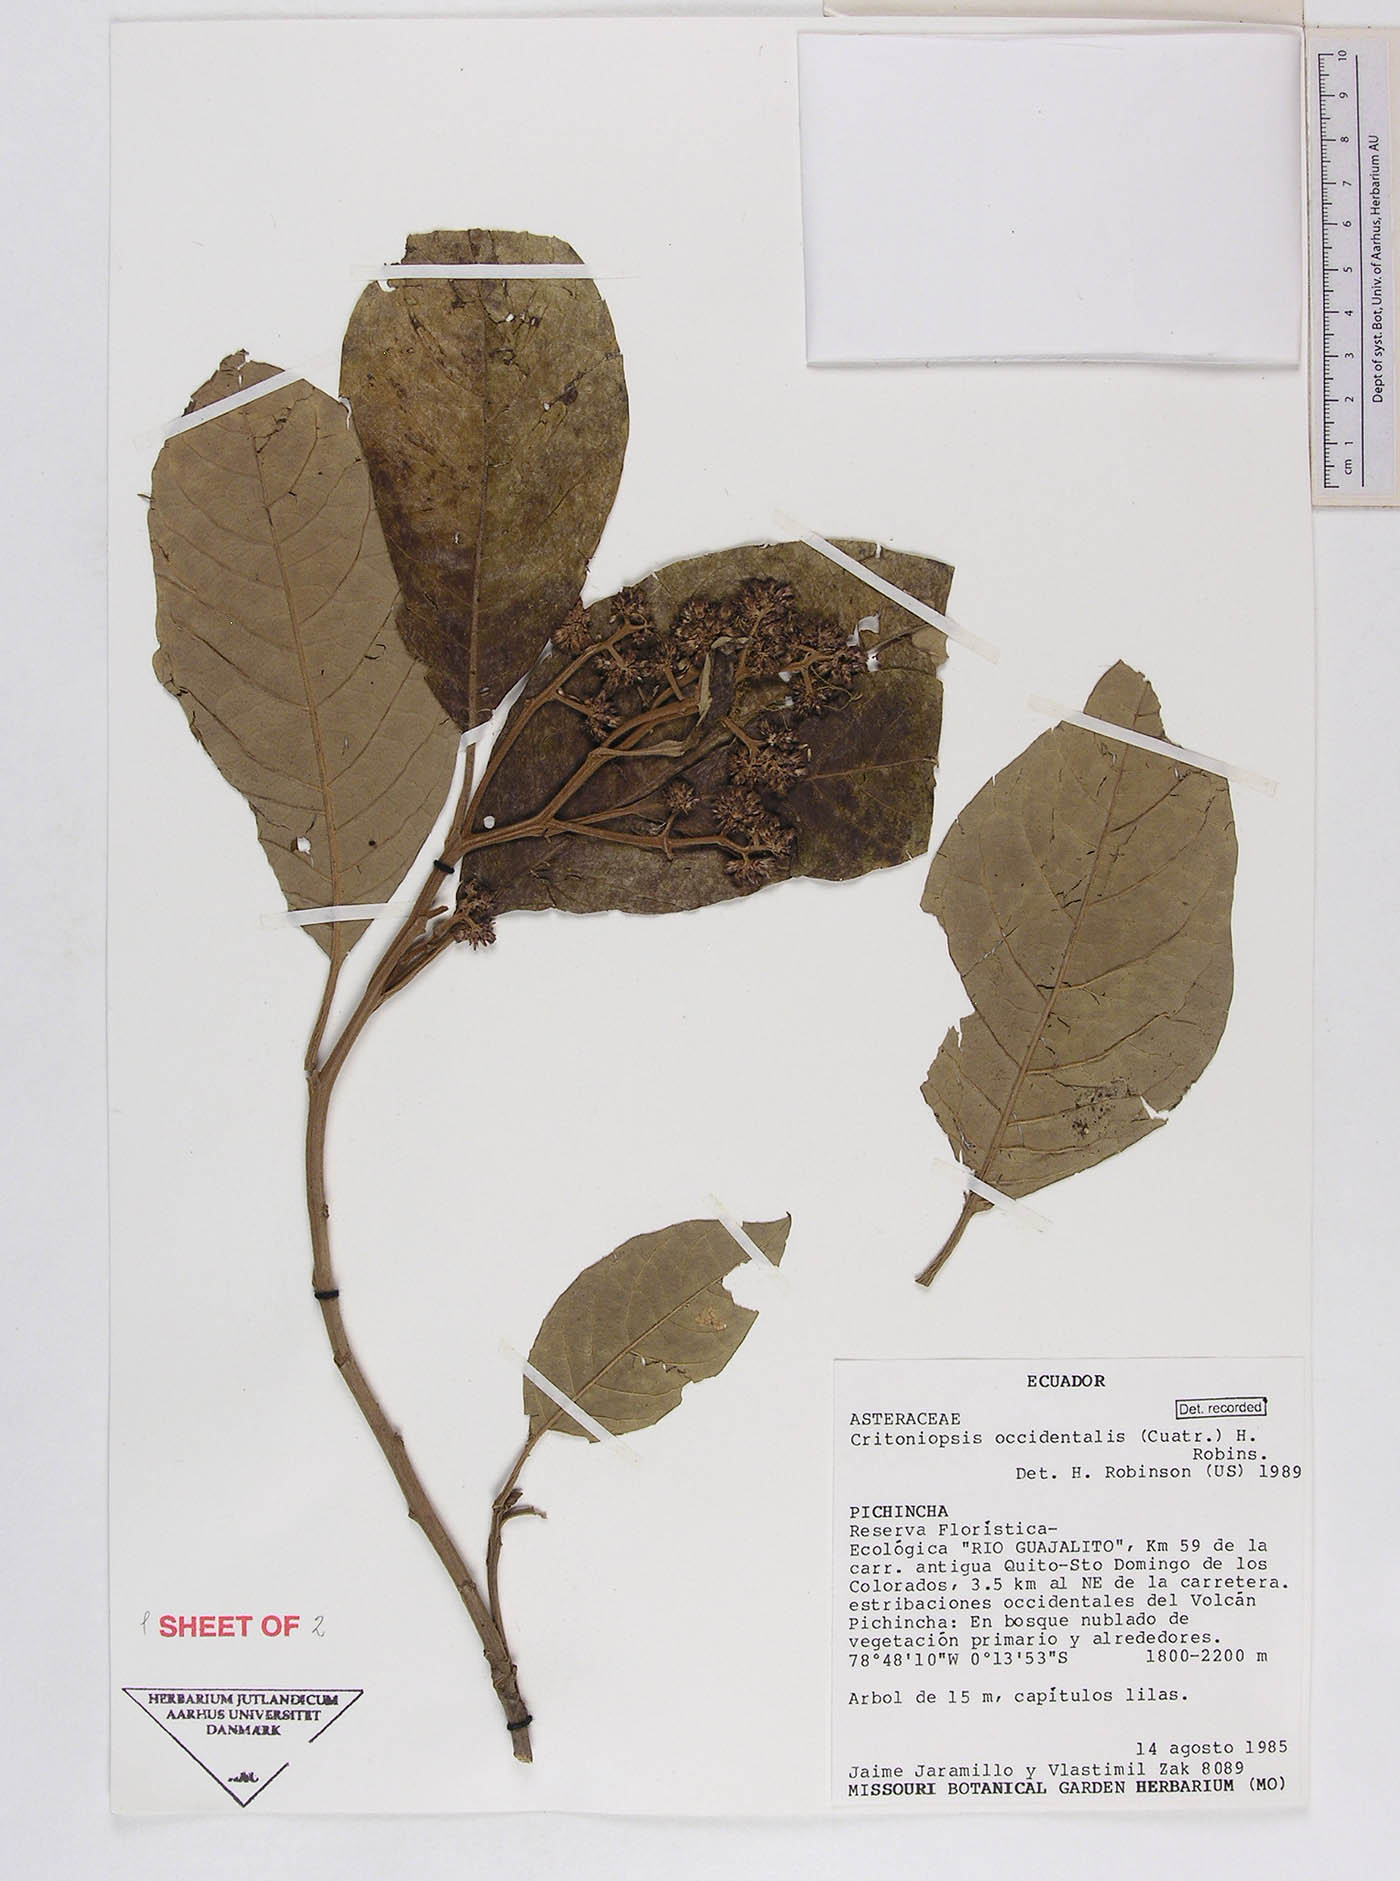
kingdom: Plantae
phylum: Tracheophyta
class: Magnoliopsida
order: Asterales
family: Asteraceae
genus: Critoniopsis
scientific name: Critoniopsis occidentalis
